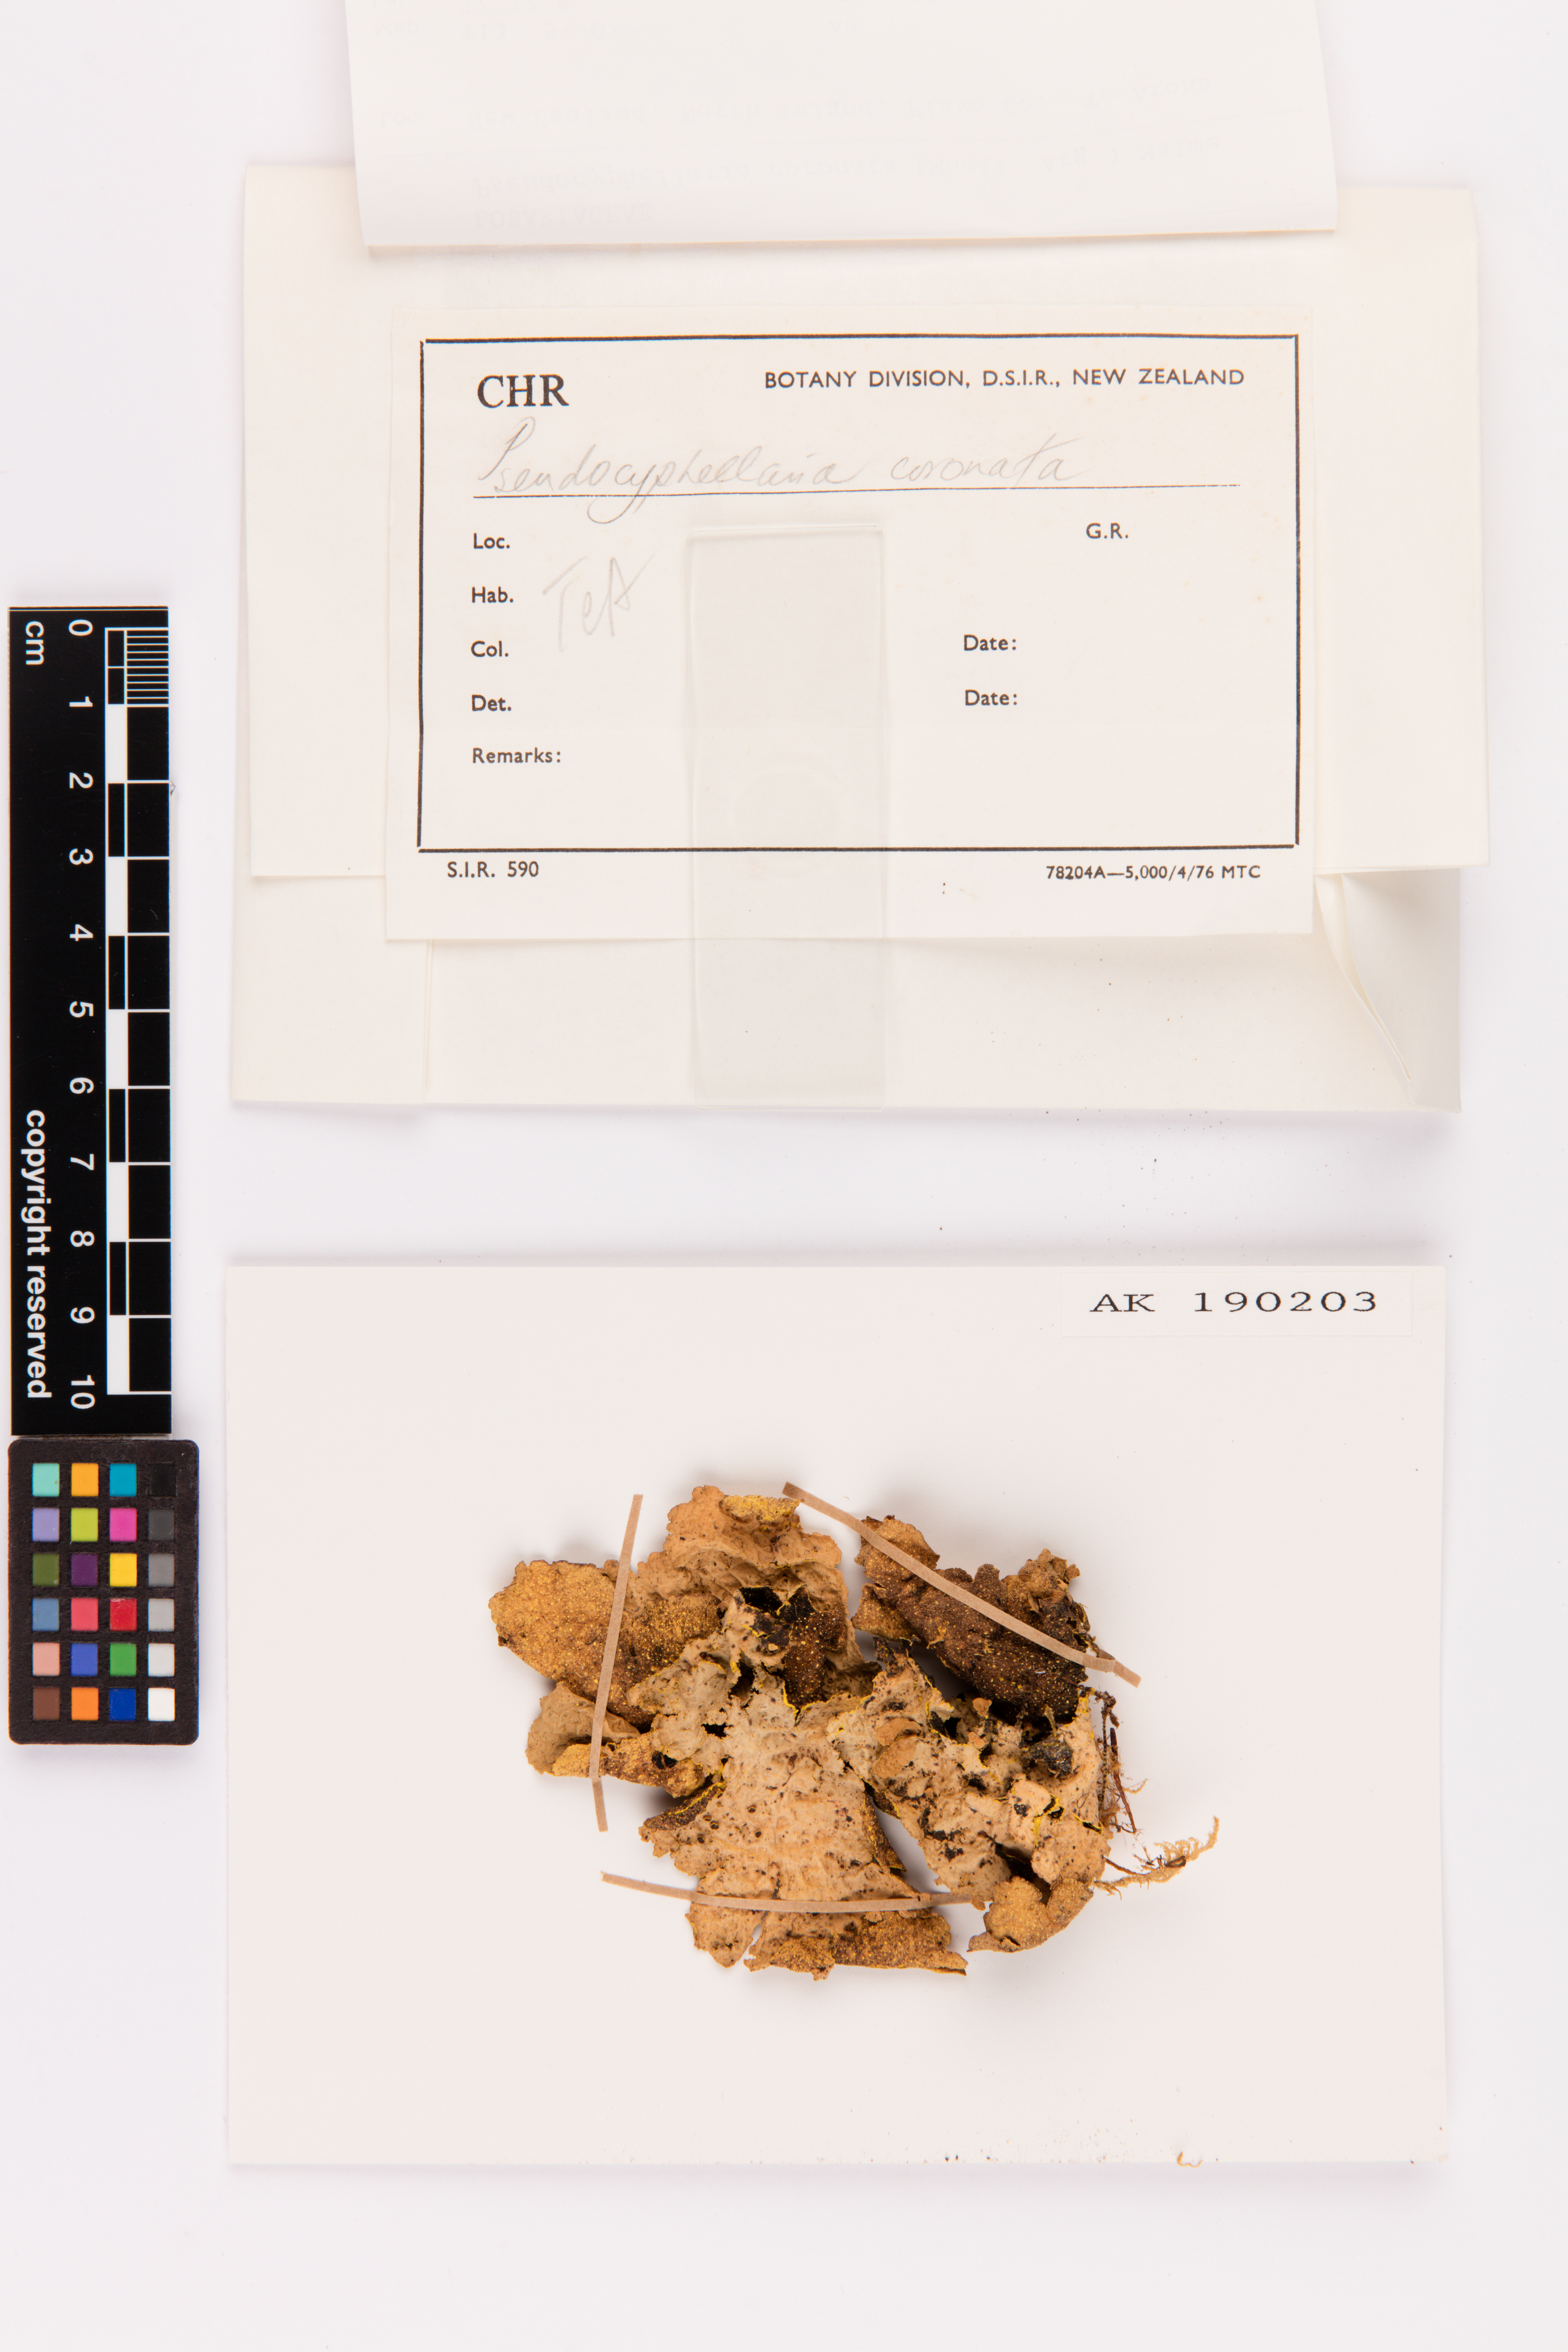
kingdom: Fungi
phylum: Ascomycota
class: Lecanoromycetes
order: Peltigerales
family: Lobariaceae
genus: Yarrumia
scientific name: Yarrumia coronata
